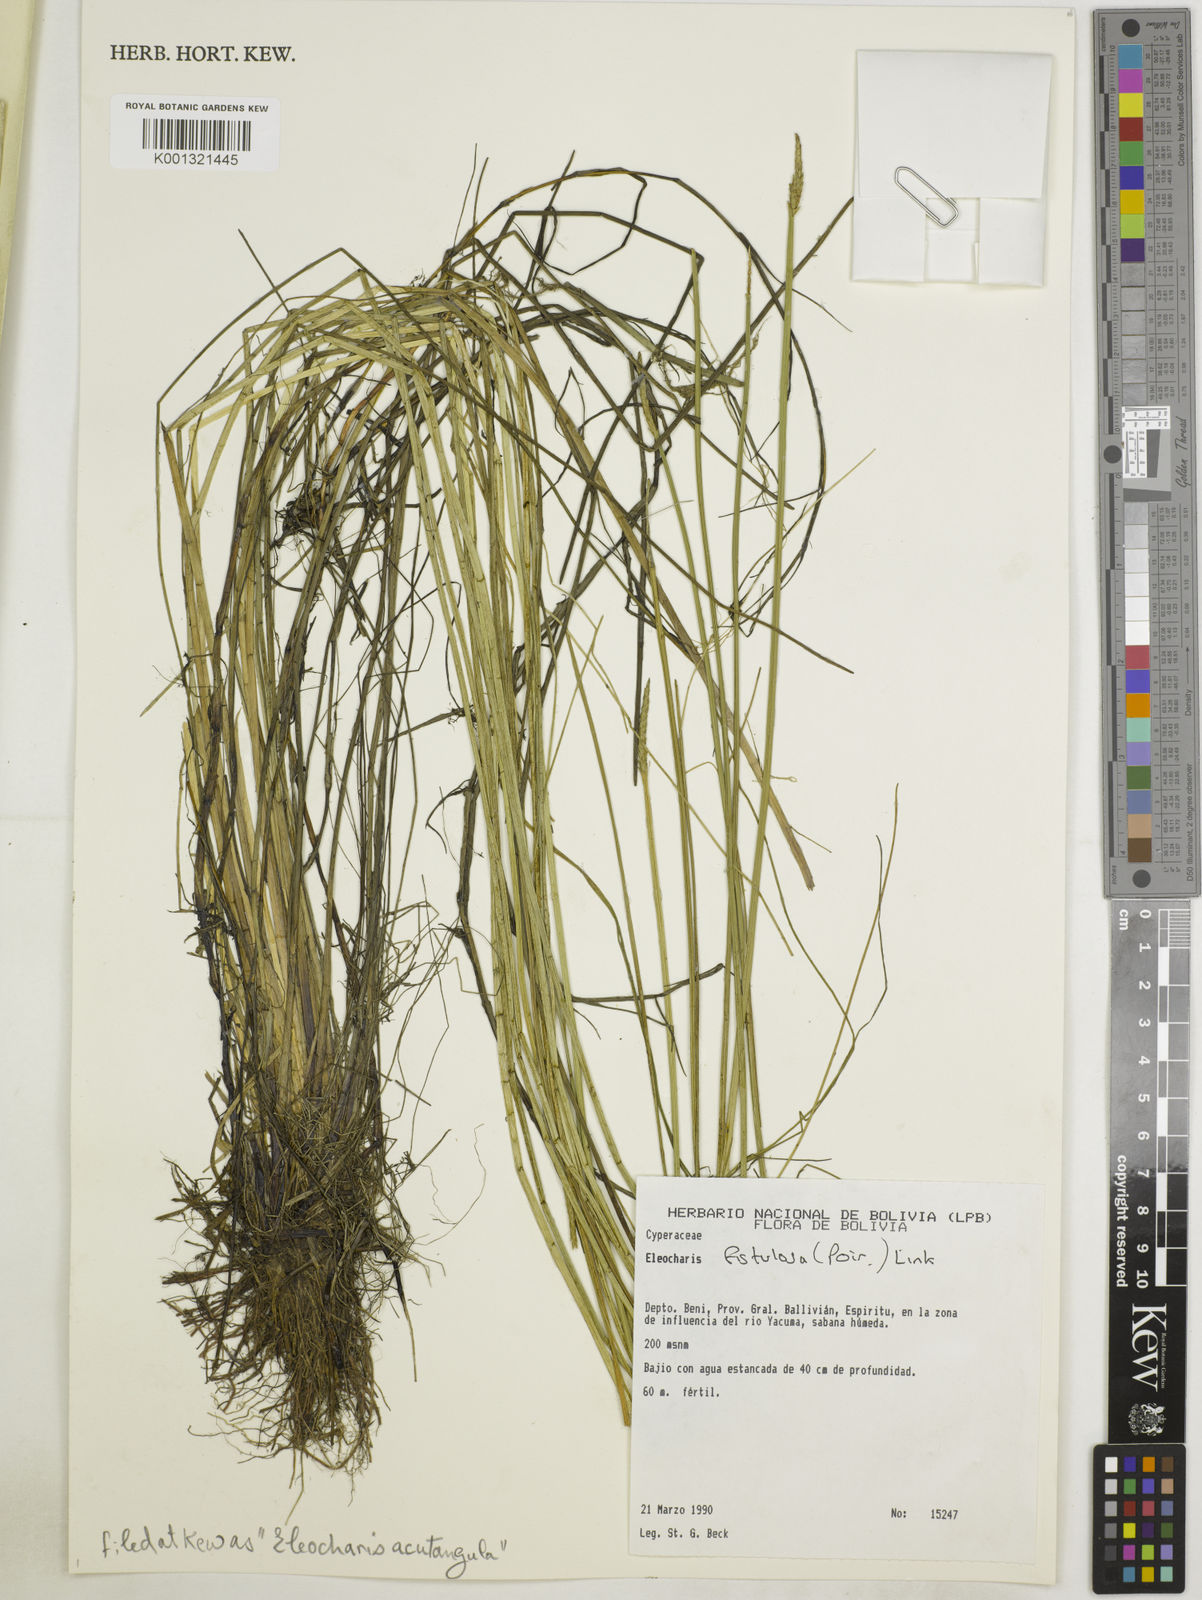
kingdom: Plantae
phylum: Tracheophyta
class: Liliopsida
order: Poales
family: Cyperaceae
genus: Eleocharis
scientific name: Eleocharis acutangula
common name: Acute spikerush
